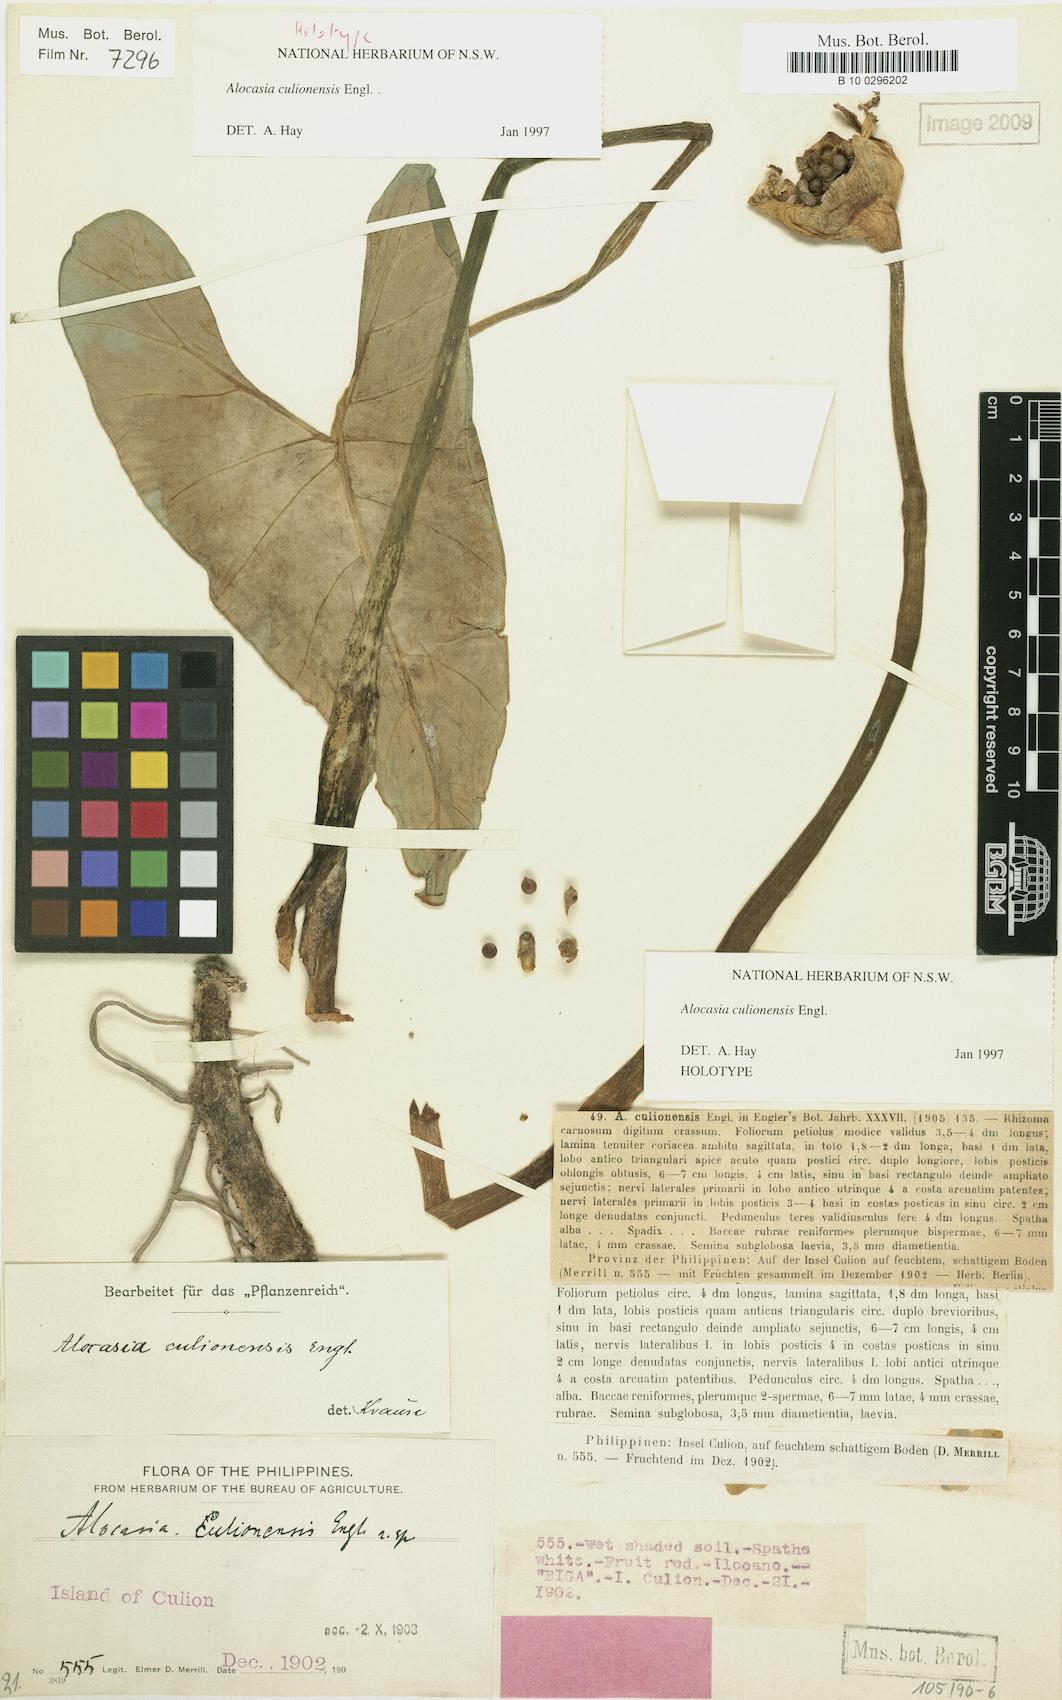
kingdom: Plantae
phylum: Tracheophyta
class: Liliopsida
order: Alismatales
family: Araceae
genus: Alocasia
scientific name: Alocasia culionensis
